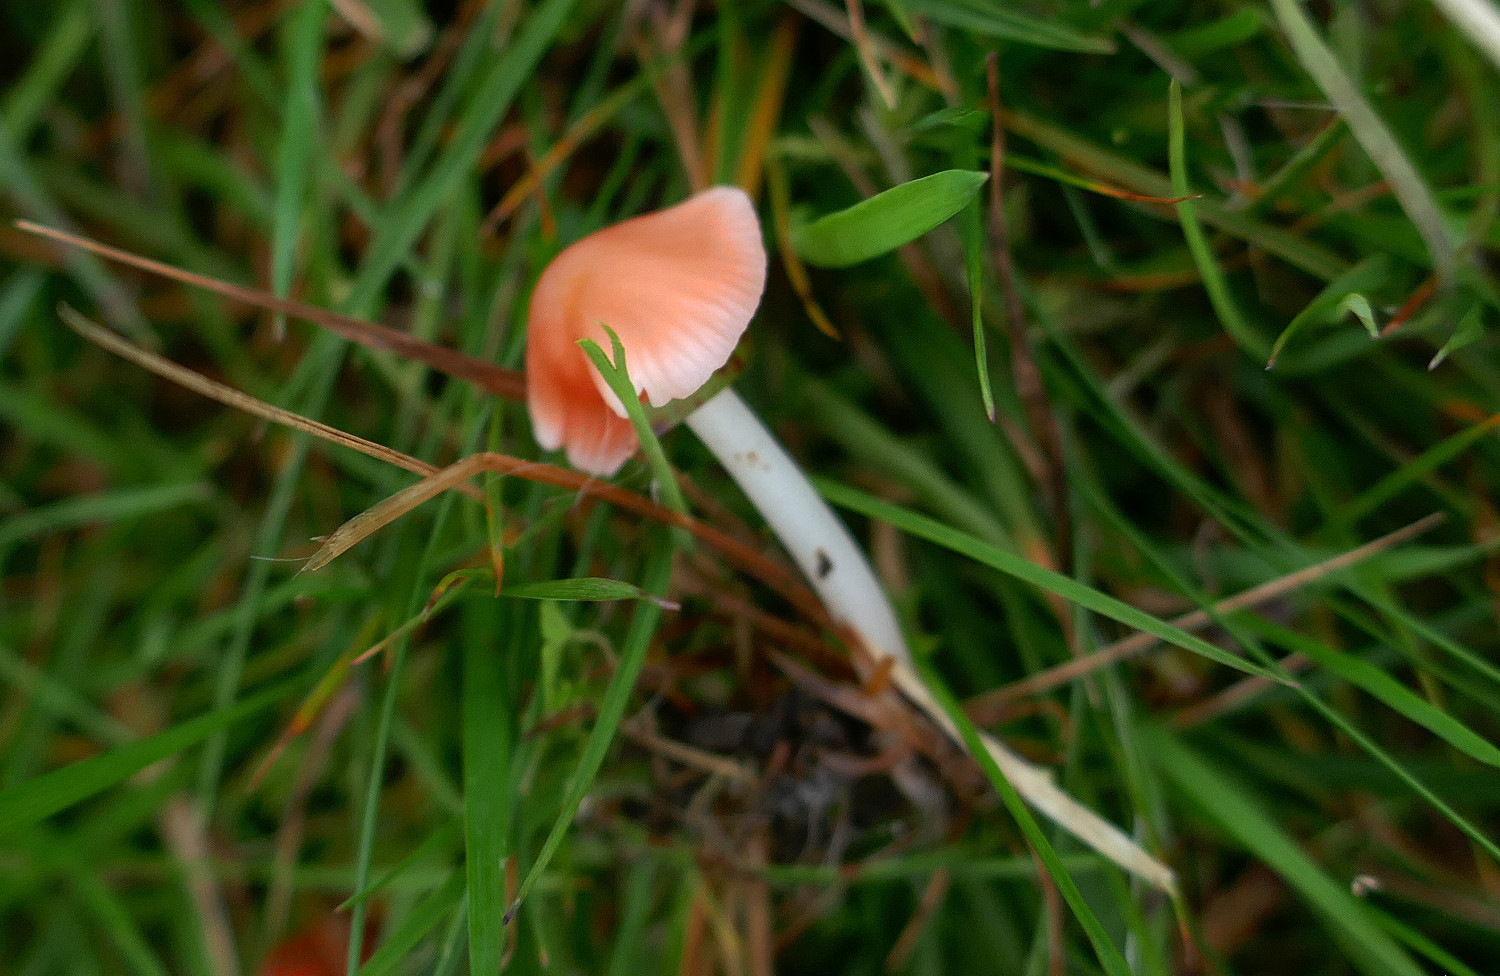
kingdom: Fungi
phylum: Basidiomycota
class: Agaricomycetes
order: Agaricales
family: Mycenaceae
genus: Atheniella
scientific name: Atheniella adonis
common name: rønnerød huesvamp
